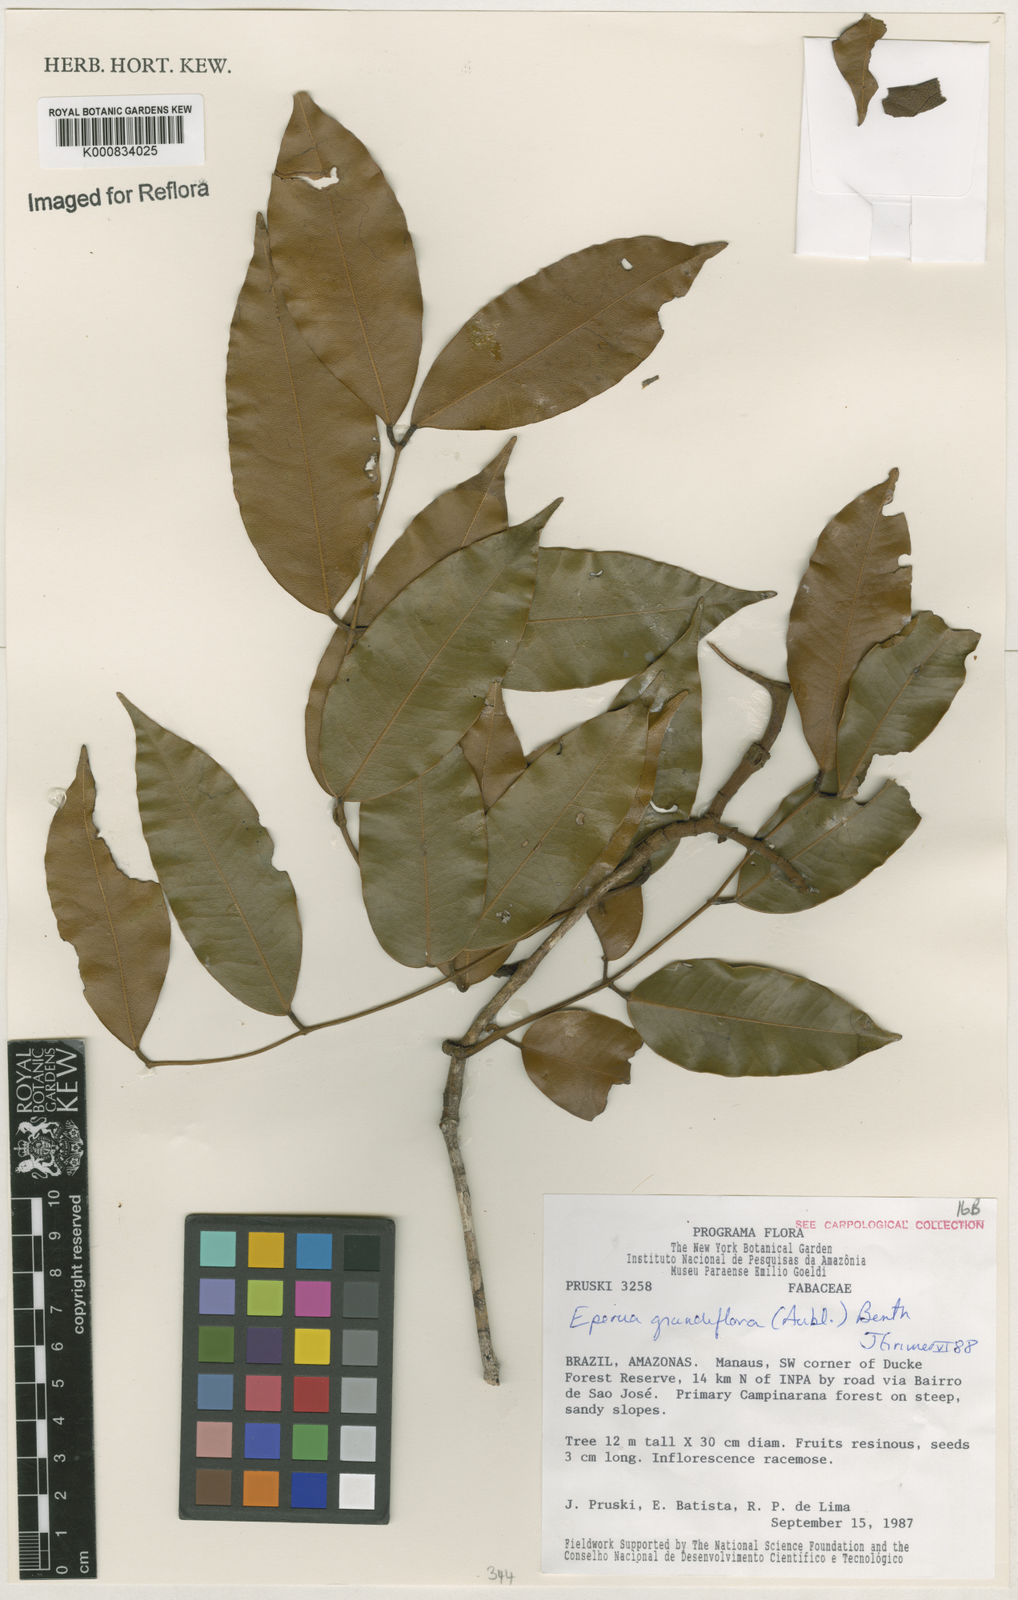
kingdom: Plantae
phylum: Tracheophyta
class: Magnoliopsida
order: Fabales
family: Fabaceae
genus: Eperua
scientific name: Eperua
